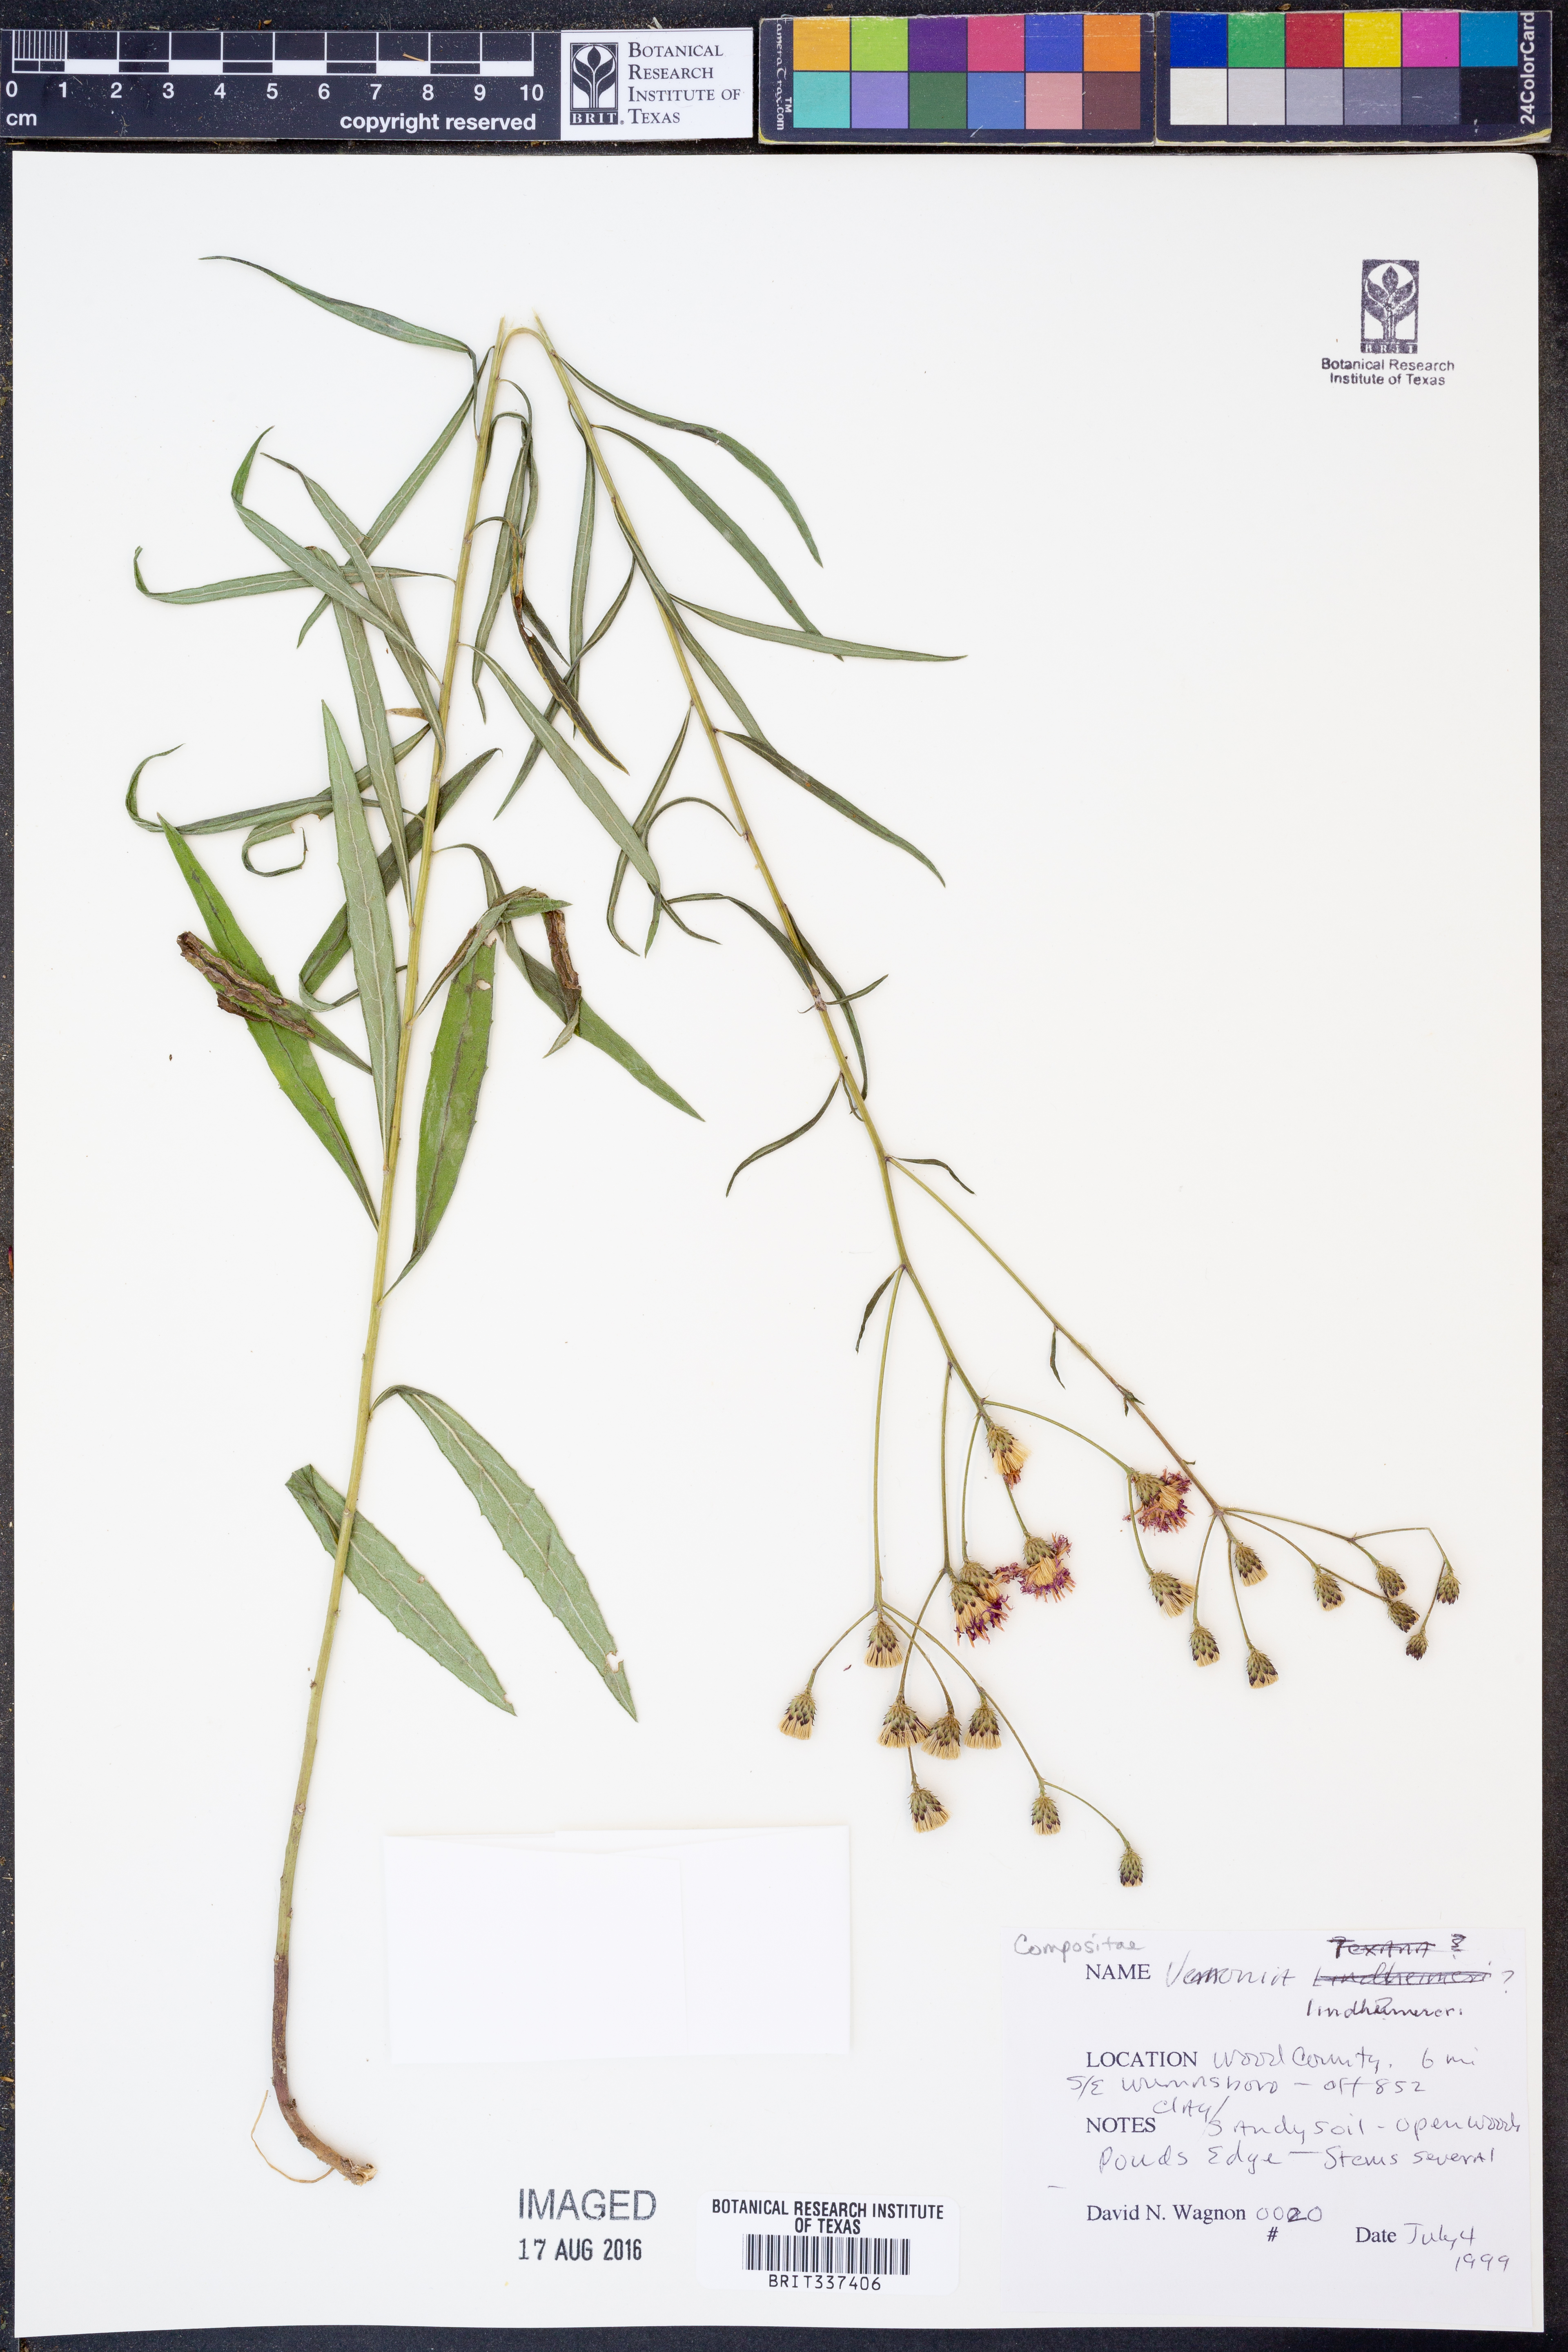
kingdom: Plantae
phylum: Tracheophyta
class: Magnoliopsida
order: Asterales
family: Asteraceae
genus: Vernonia
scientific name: Vernonia lindheimeri
